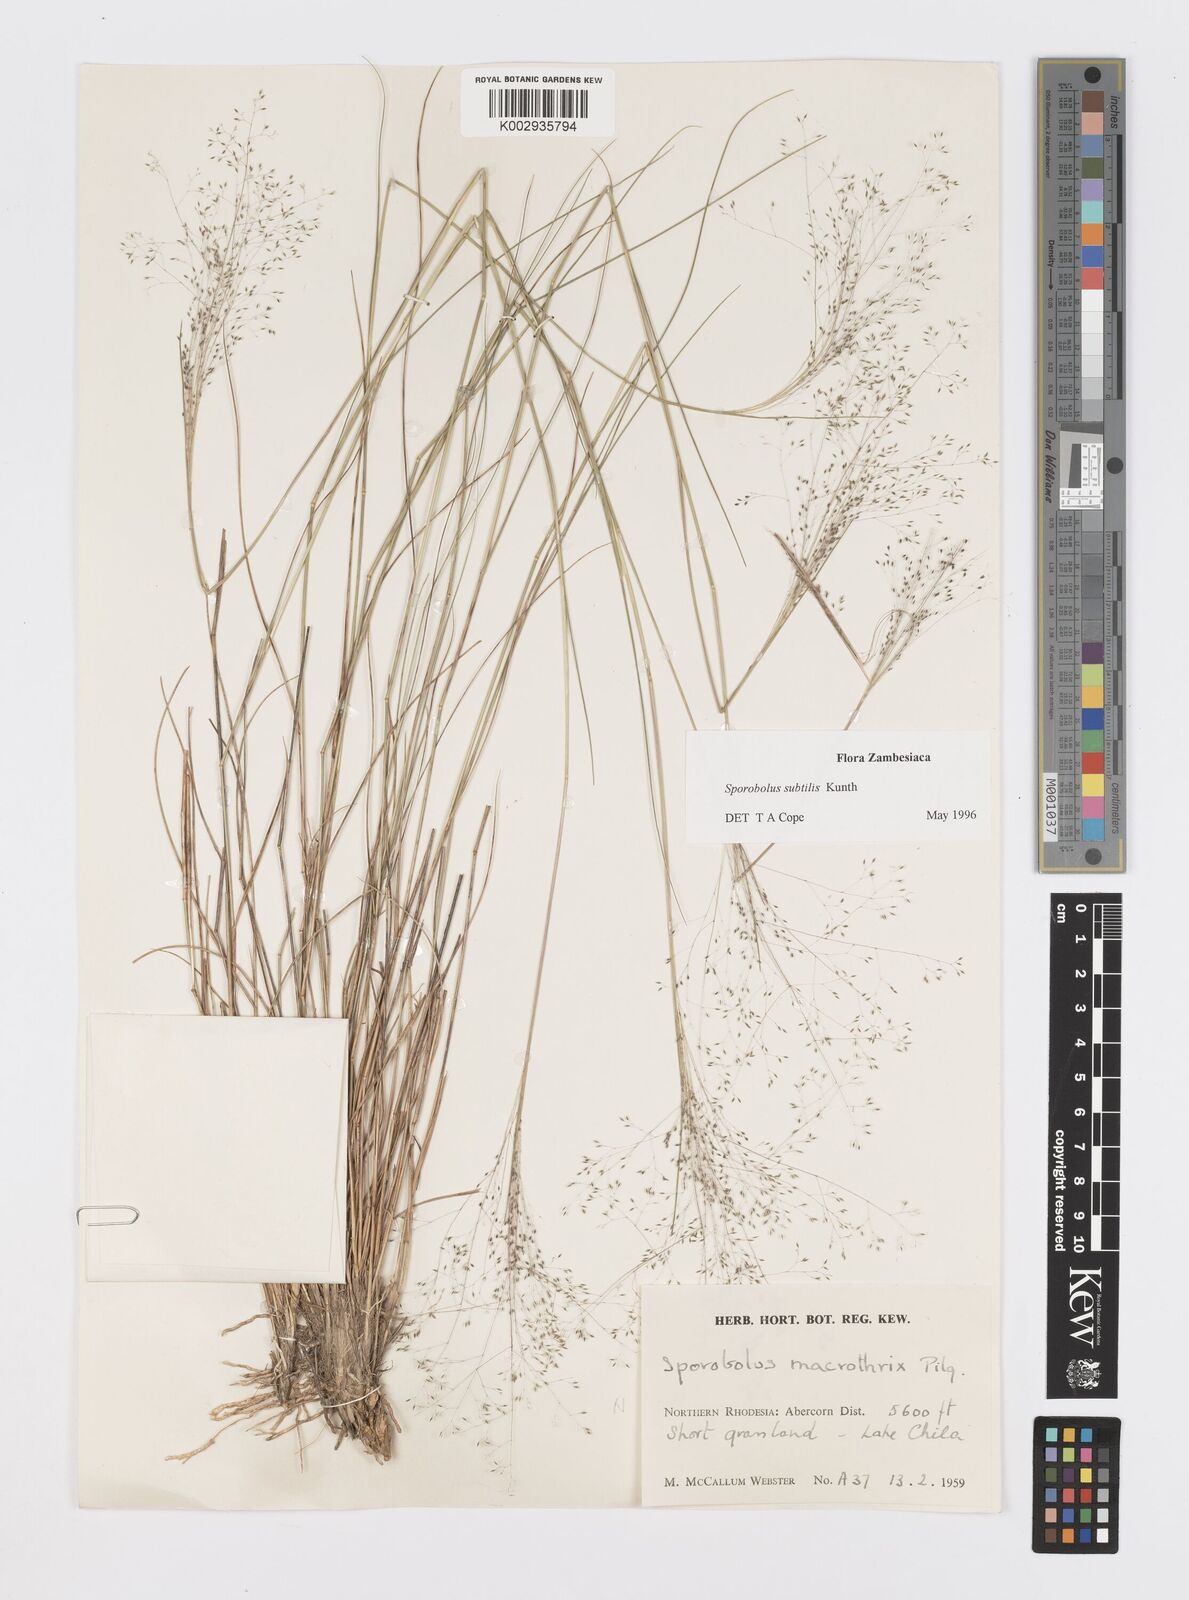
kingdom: Plantae
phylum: Tracheophyta
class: Liliopsida
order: Poales
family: Poaceae
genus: Sporobolus
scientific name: Sporobolus subtilis
